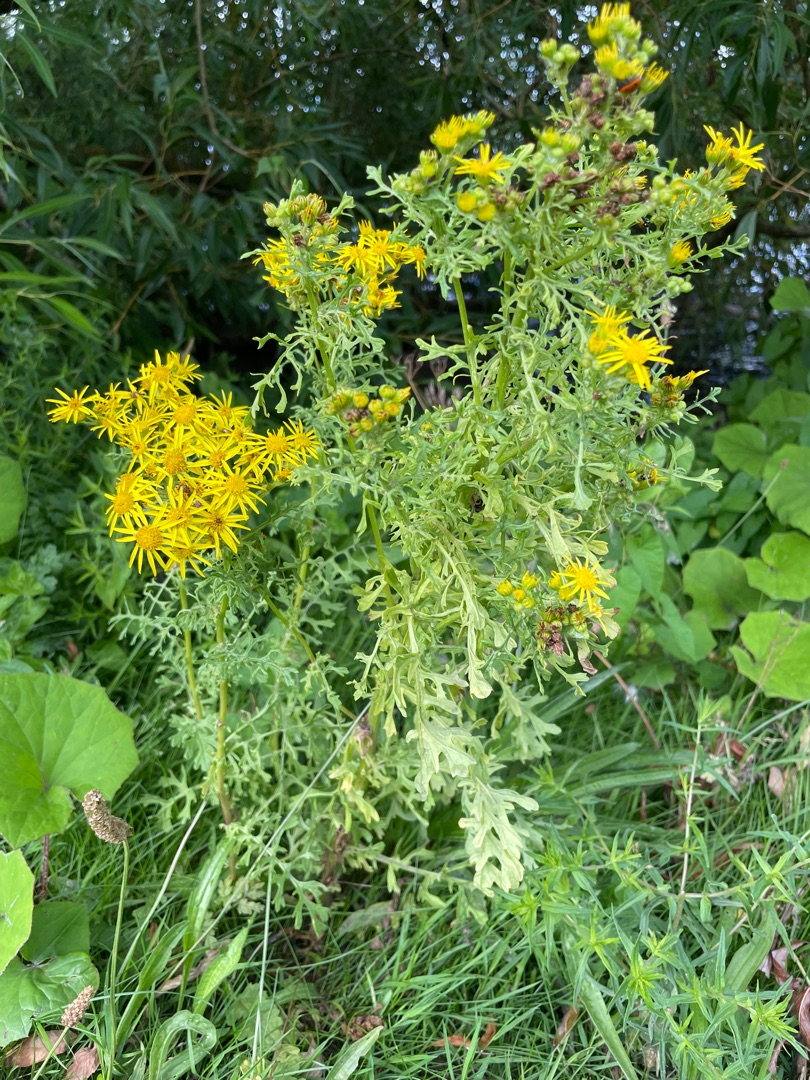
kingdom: Plantae
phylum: Tracheophyta
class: Magnoliopsida
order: Asterales
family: Asteraceae
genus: Jacobaea
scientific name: Jacobaea vulgaris
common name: Eng-brandbæger
